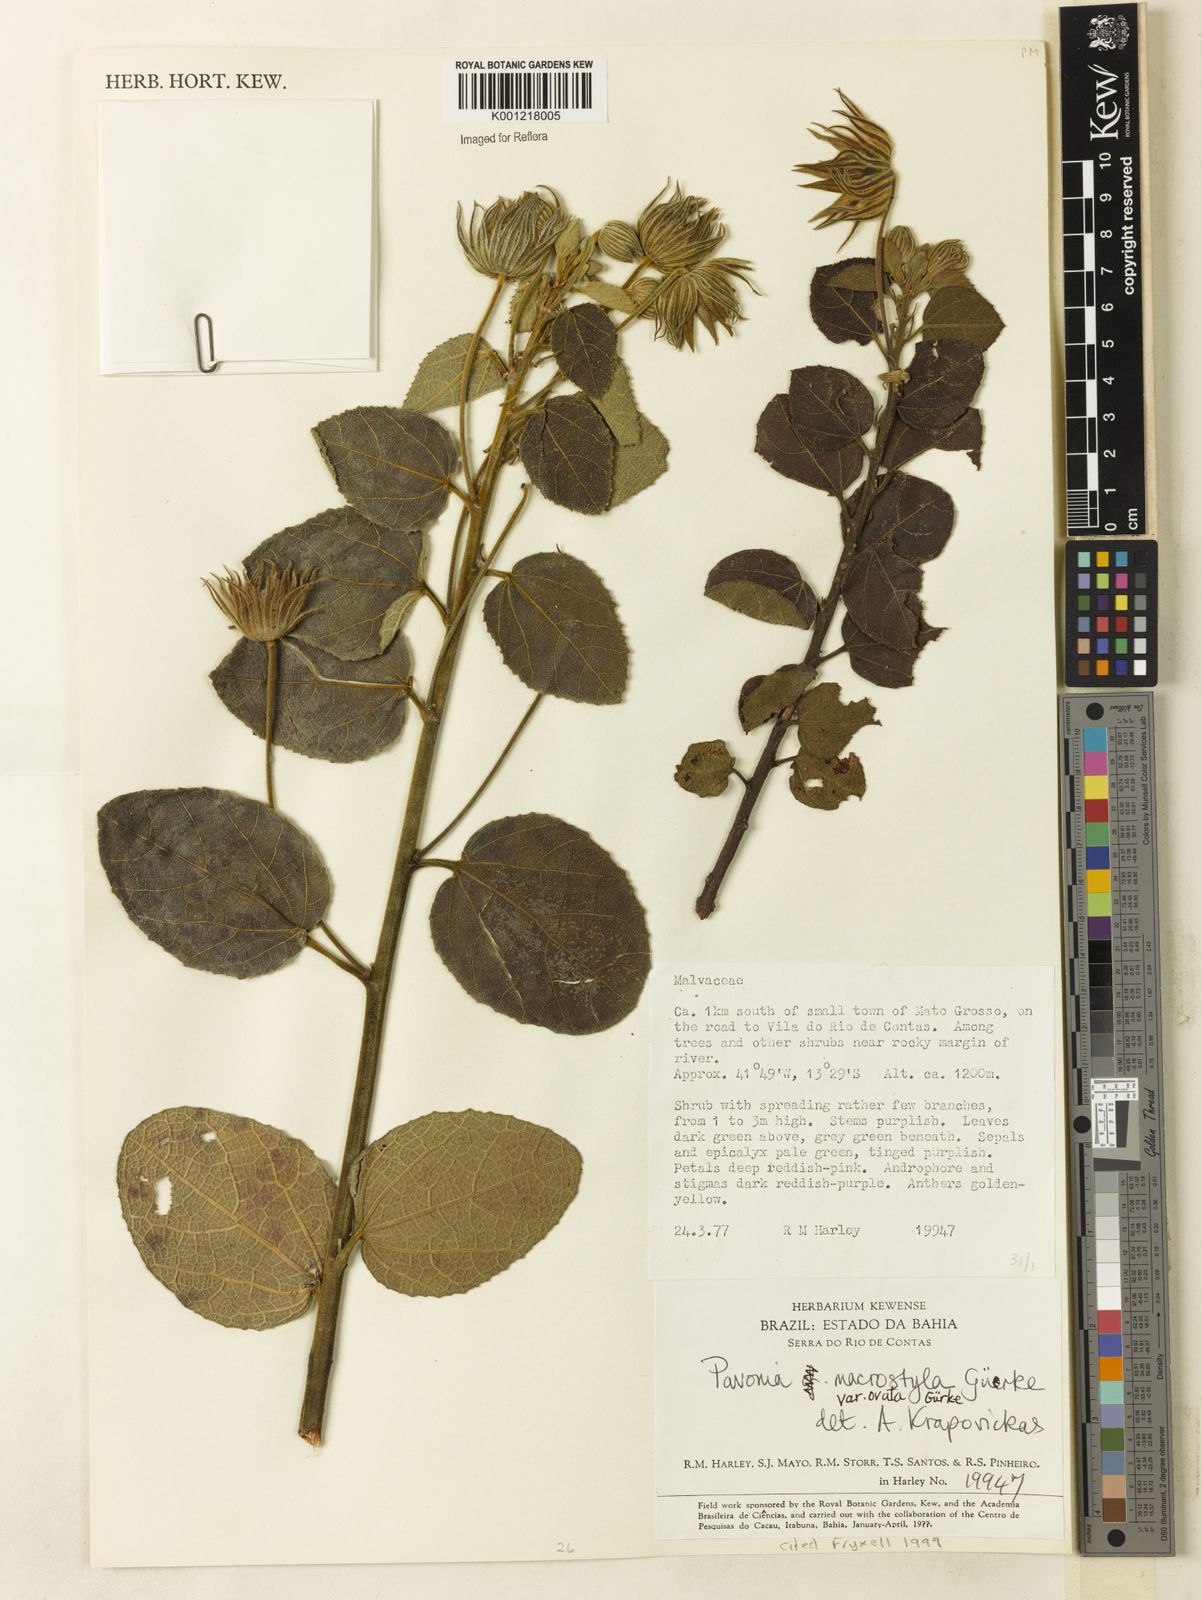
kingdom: Plantae
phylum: Tracheophyta
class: Magnoliopsida
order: Malvales
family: Malvaceae
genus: Pavonia
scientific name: Pavonia macrostyla
